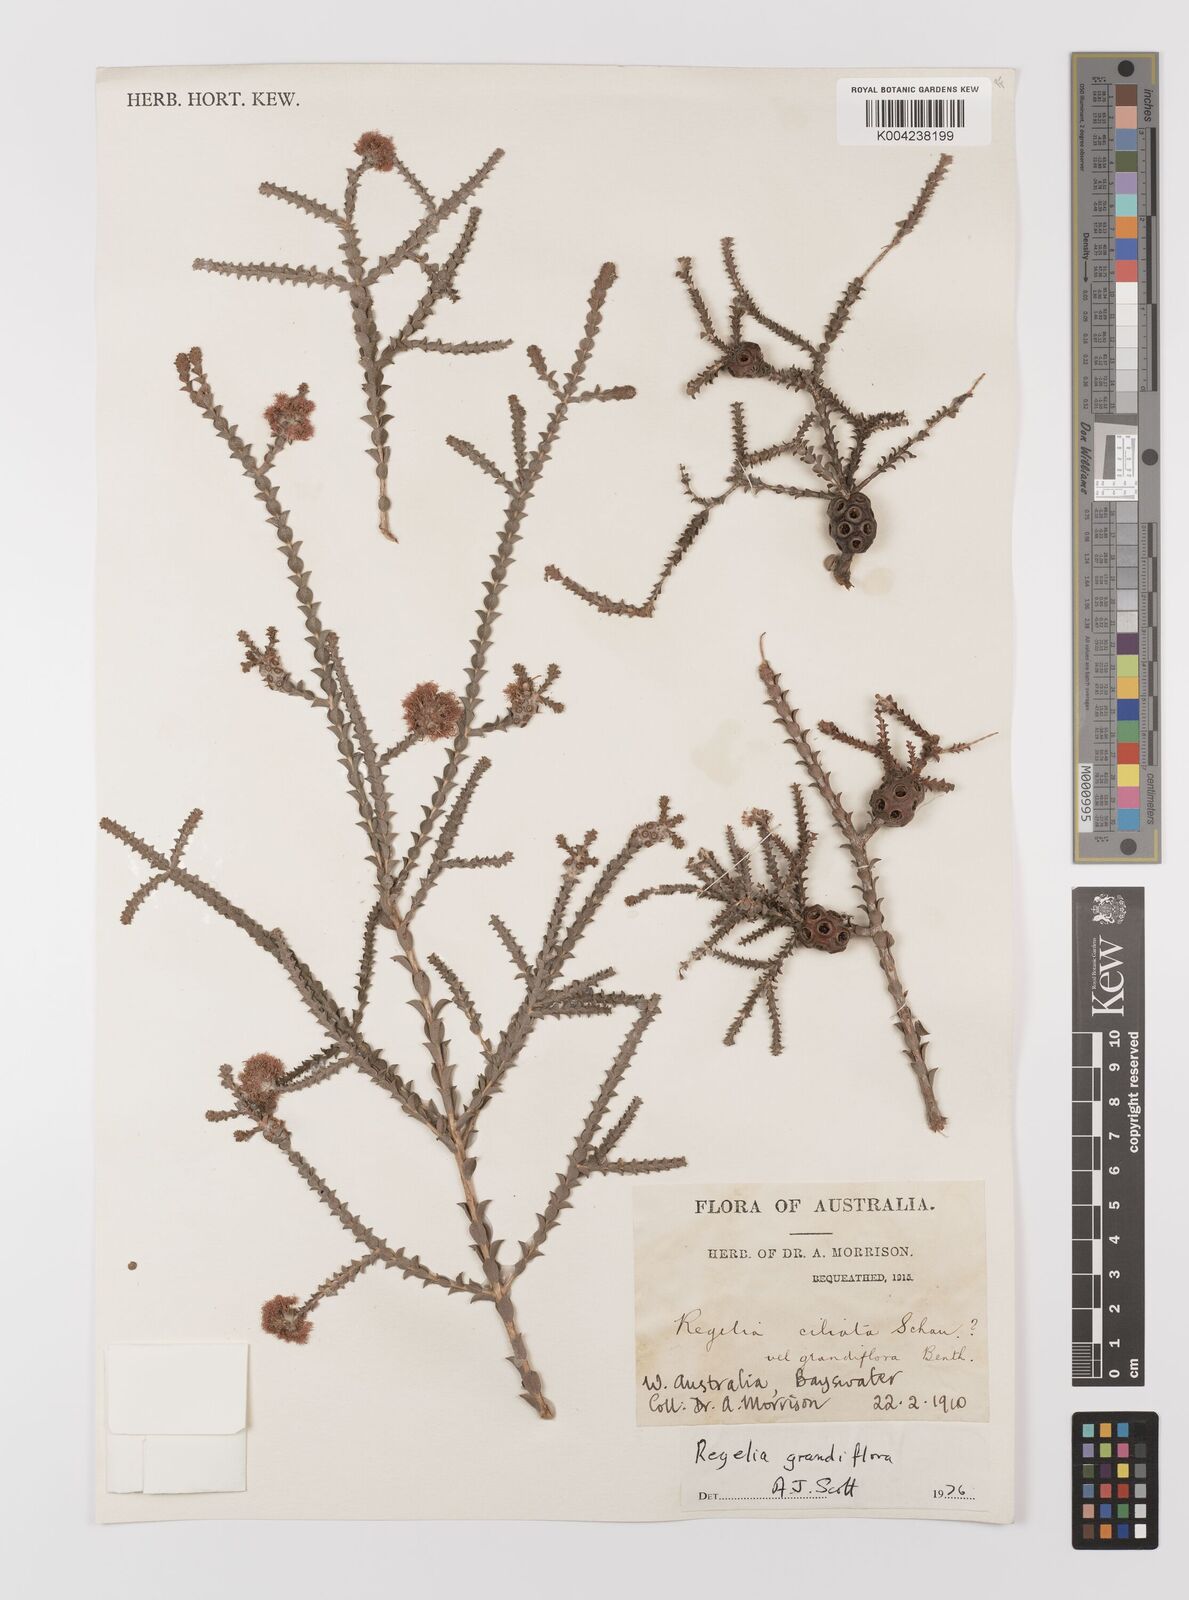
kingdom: Plantae
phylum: Tracheophyta
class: Magnoliopsida
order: Myrtales
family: Myrtaceae
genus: Melaleuca
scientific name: Melaleuca crossota
